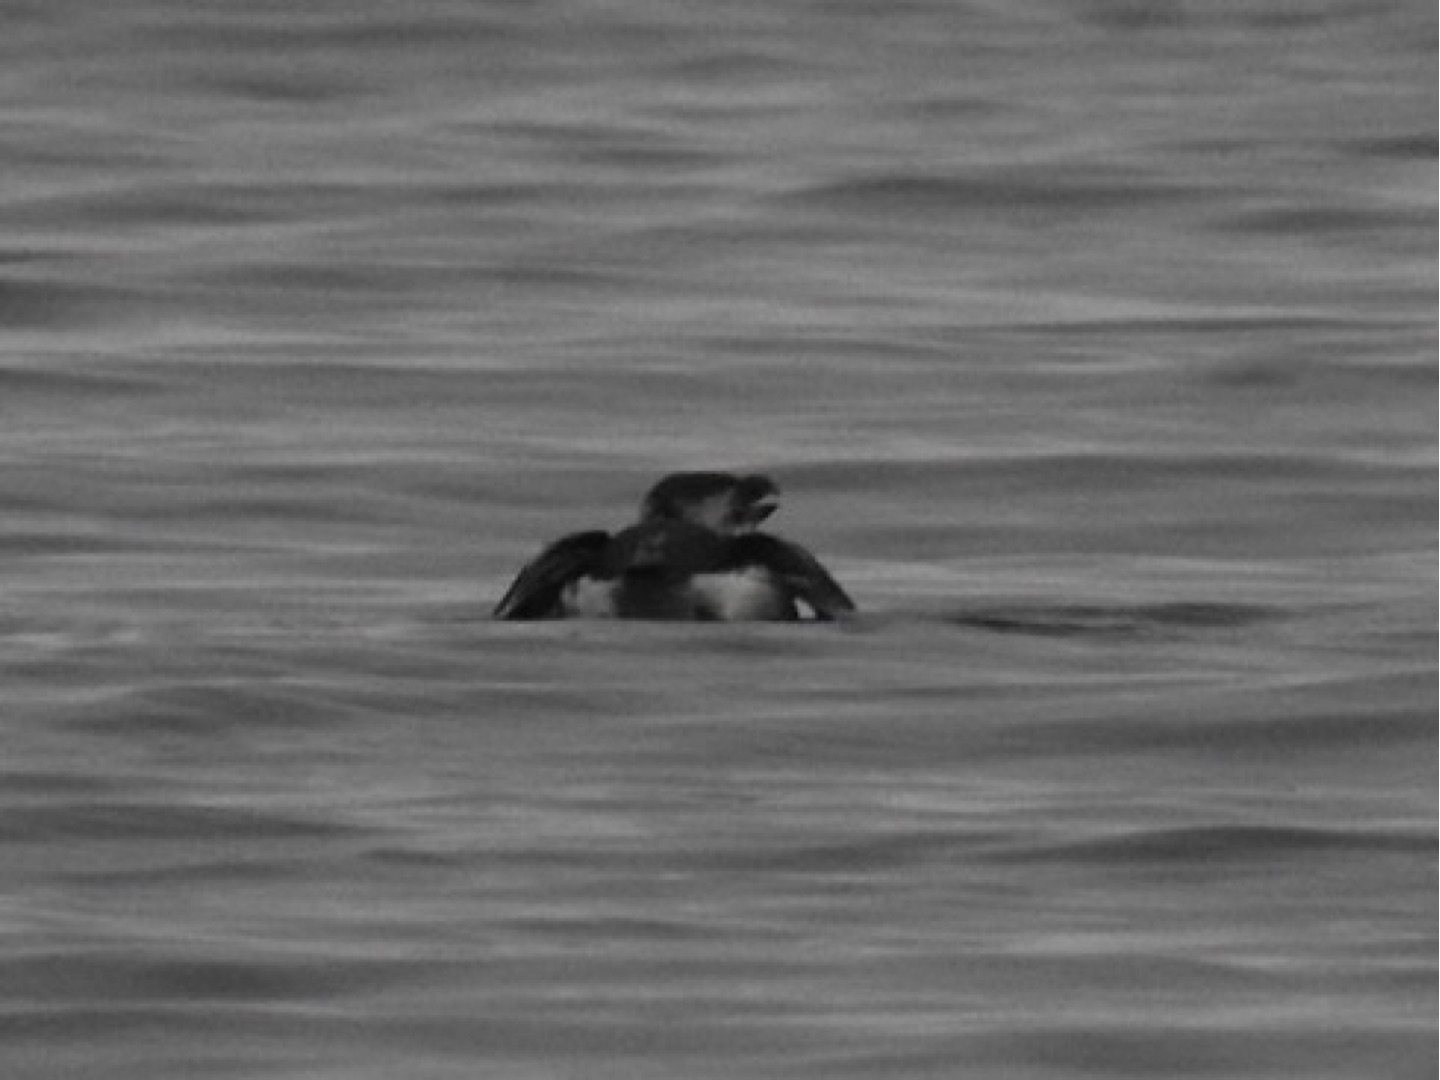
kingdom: Animalia
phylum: Chordata
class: Aves
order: Charadriiformes
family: Alcidae
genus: Alca
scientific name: Alca torda
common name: Alk
